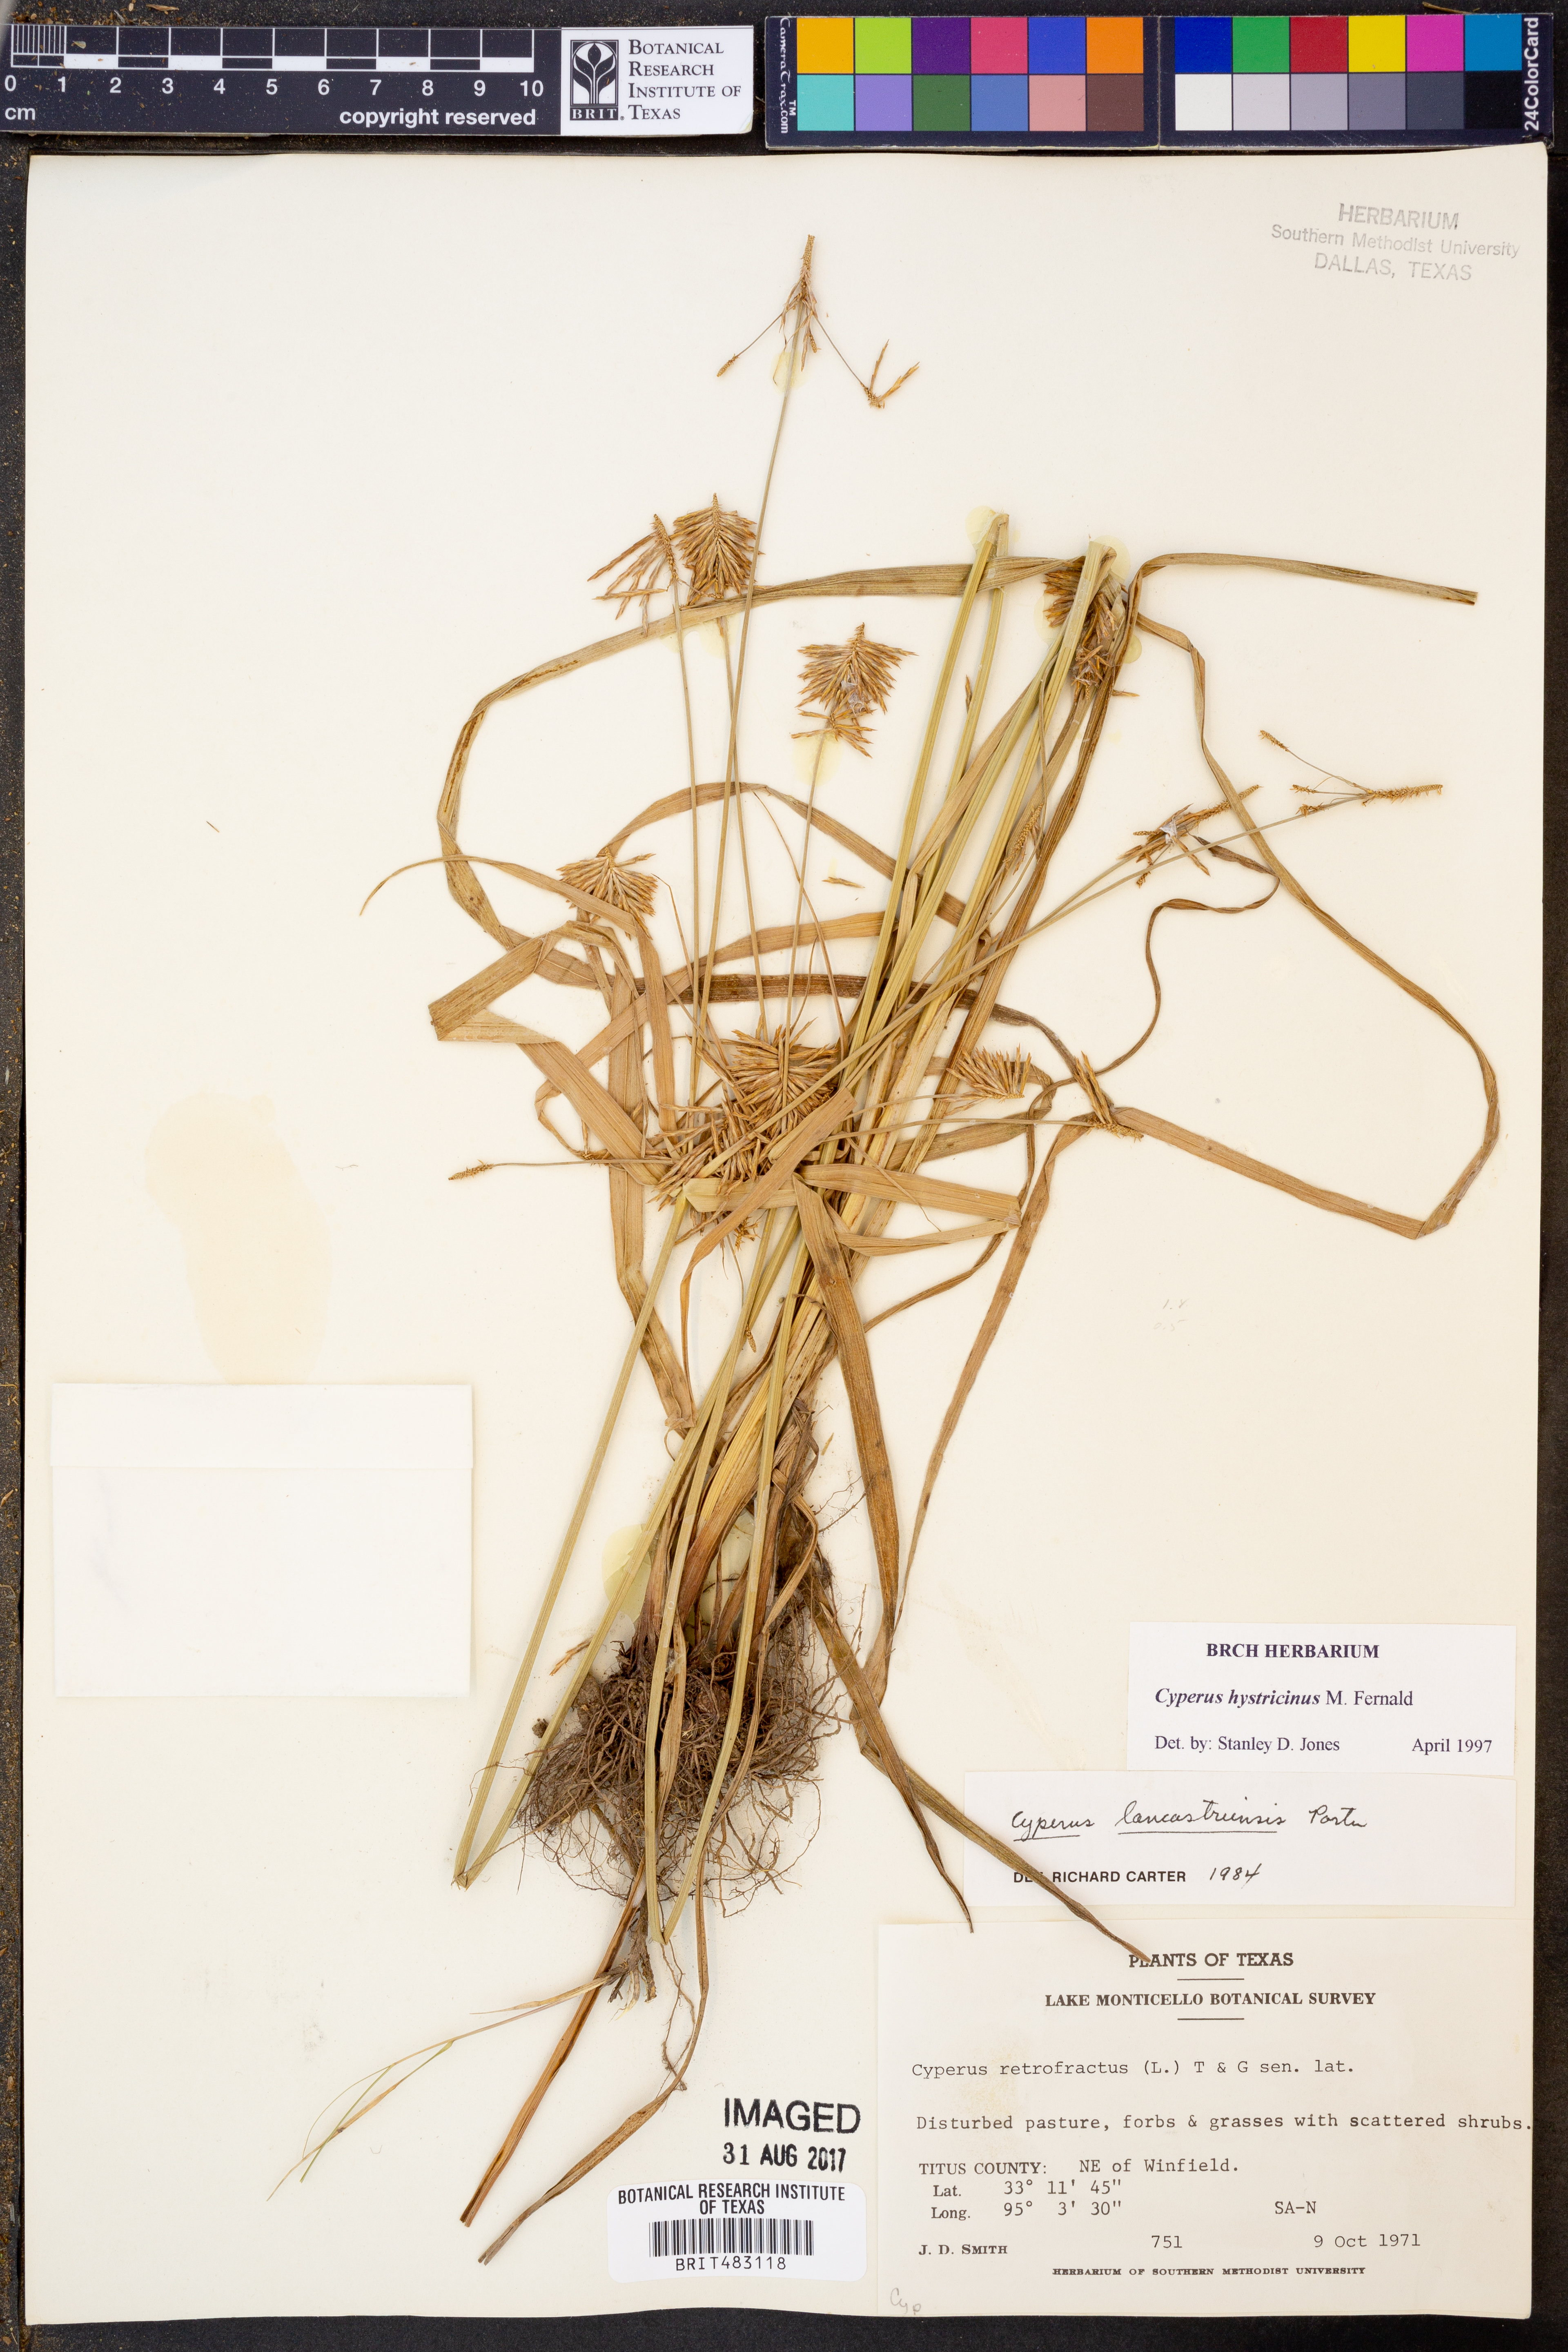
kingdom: Plantae
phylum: Tracheophyta
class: Liliopsida
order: Poales
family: Cyperaceae
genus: Cyperus
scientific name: Cyperus hystricinus
